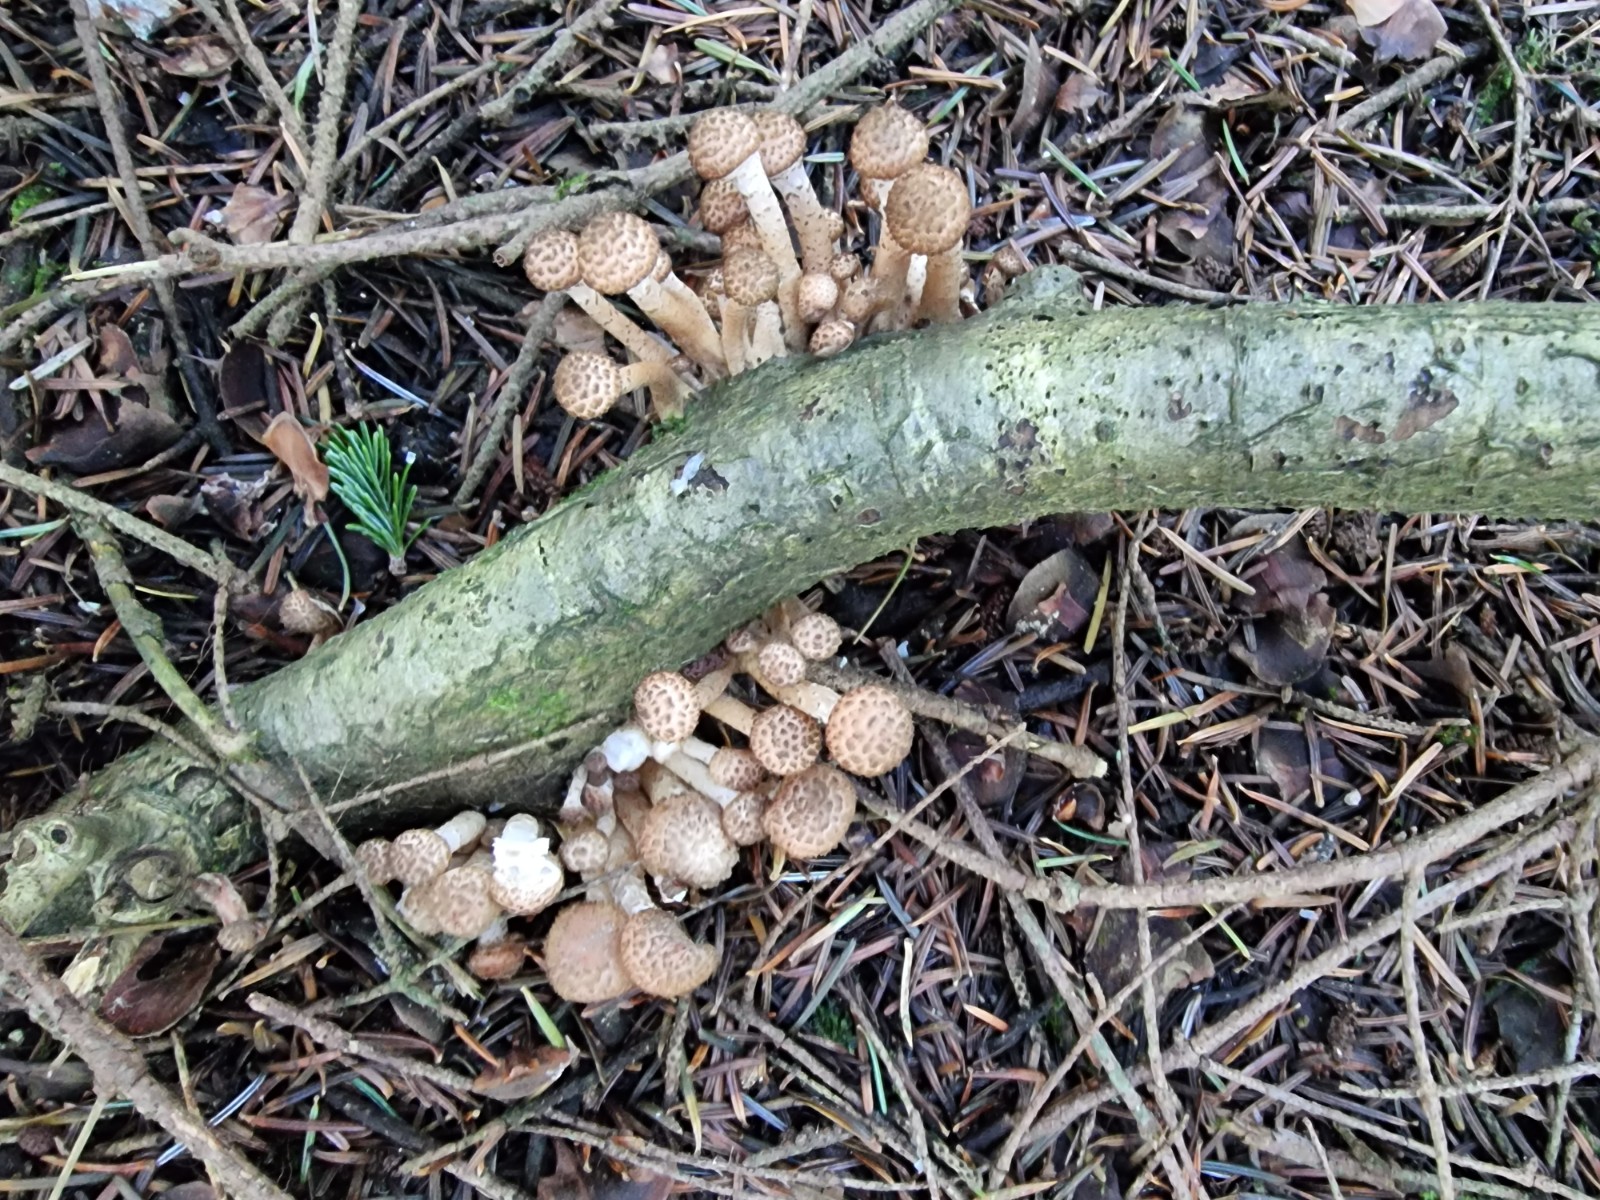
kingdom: Fungi
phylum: Basidiomycota
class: Agaricomycetes
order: Agaricales
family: Physalacriaceae
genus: Armillaria
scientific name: Armillaria ostoyae
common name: mørk honningsvamp
